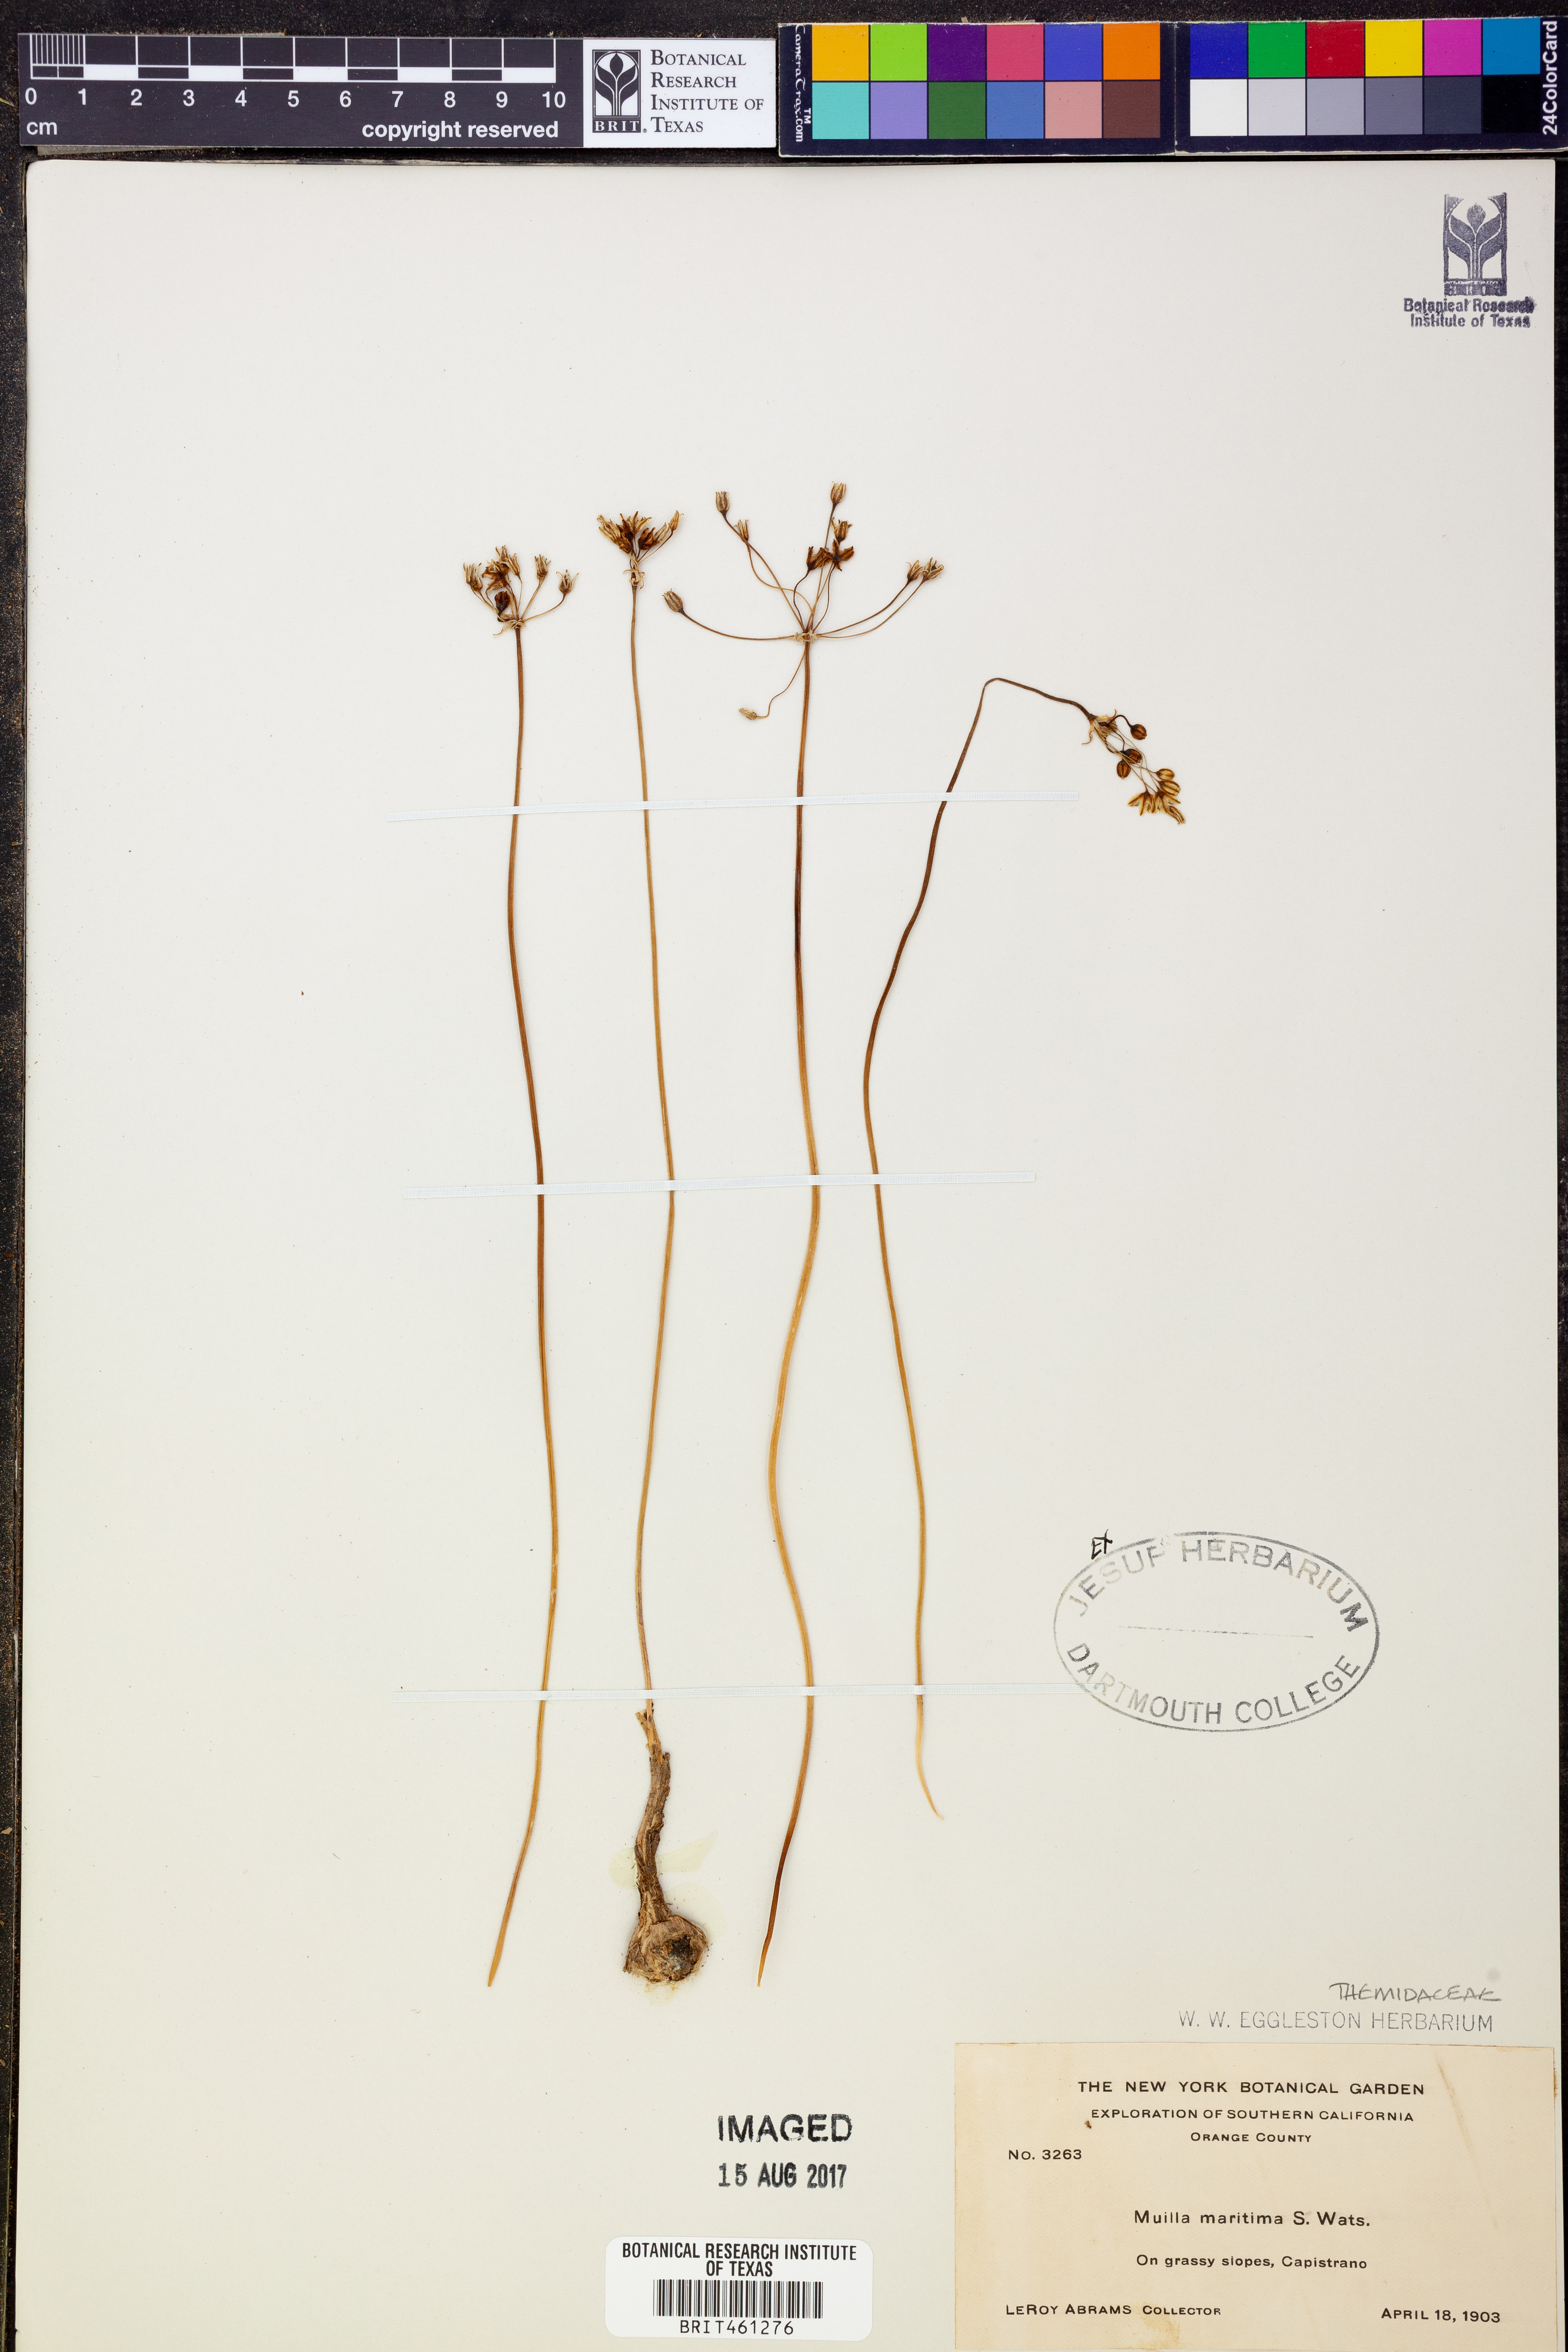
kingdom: Plantae
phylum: Tracheophyta
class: Liliopsida
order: Asparagales
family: Asparagaceae
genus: Muilla
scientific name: Muilla maritima
